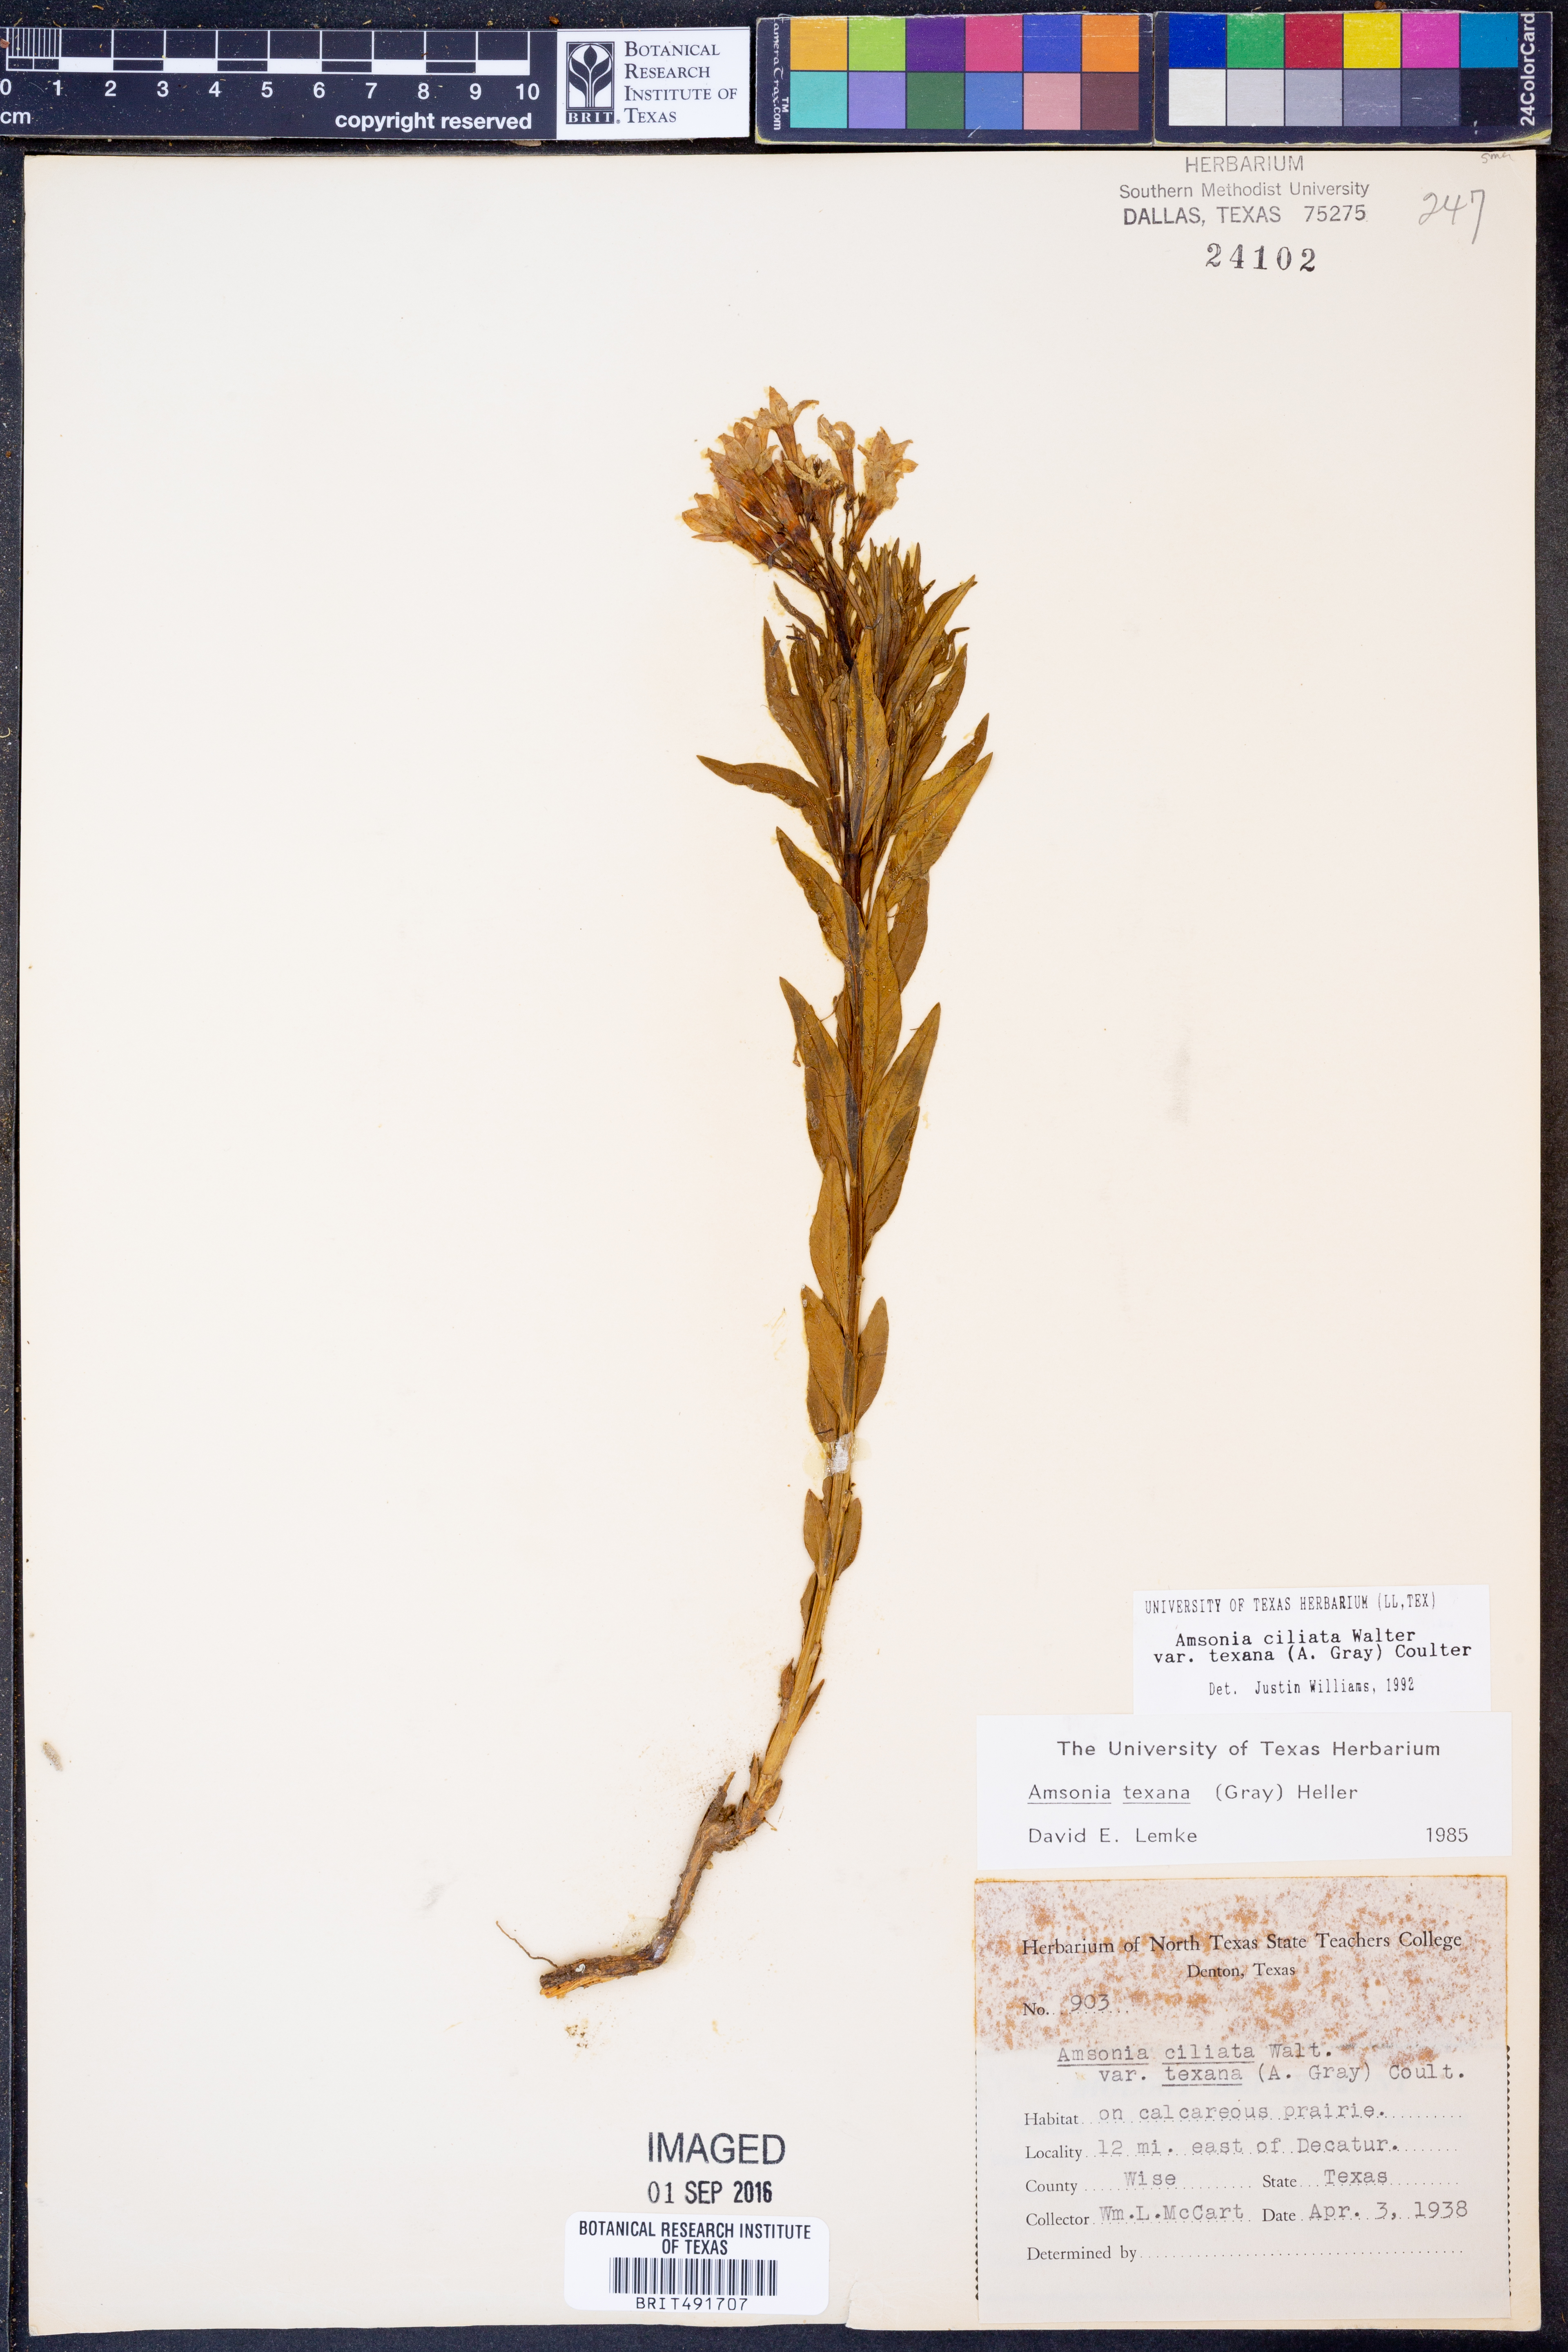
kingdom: Plantae
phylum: Tracheophyta
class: Magnoliopsida
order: Gentianales
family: Apocynaceae
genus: Amsonia
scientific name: Amsonia ciliata
